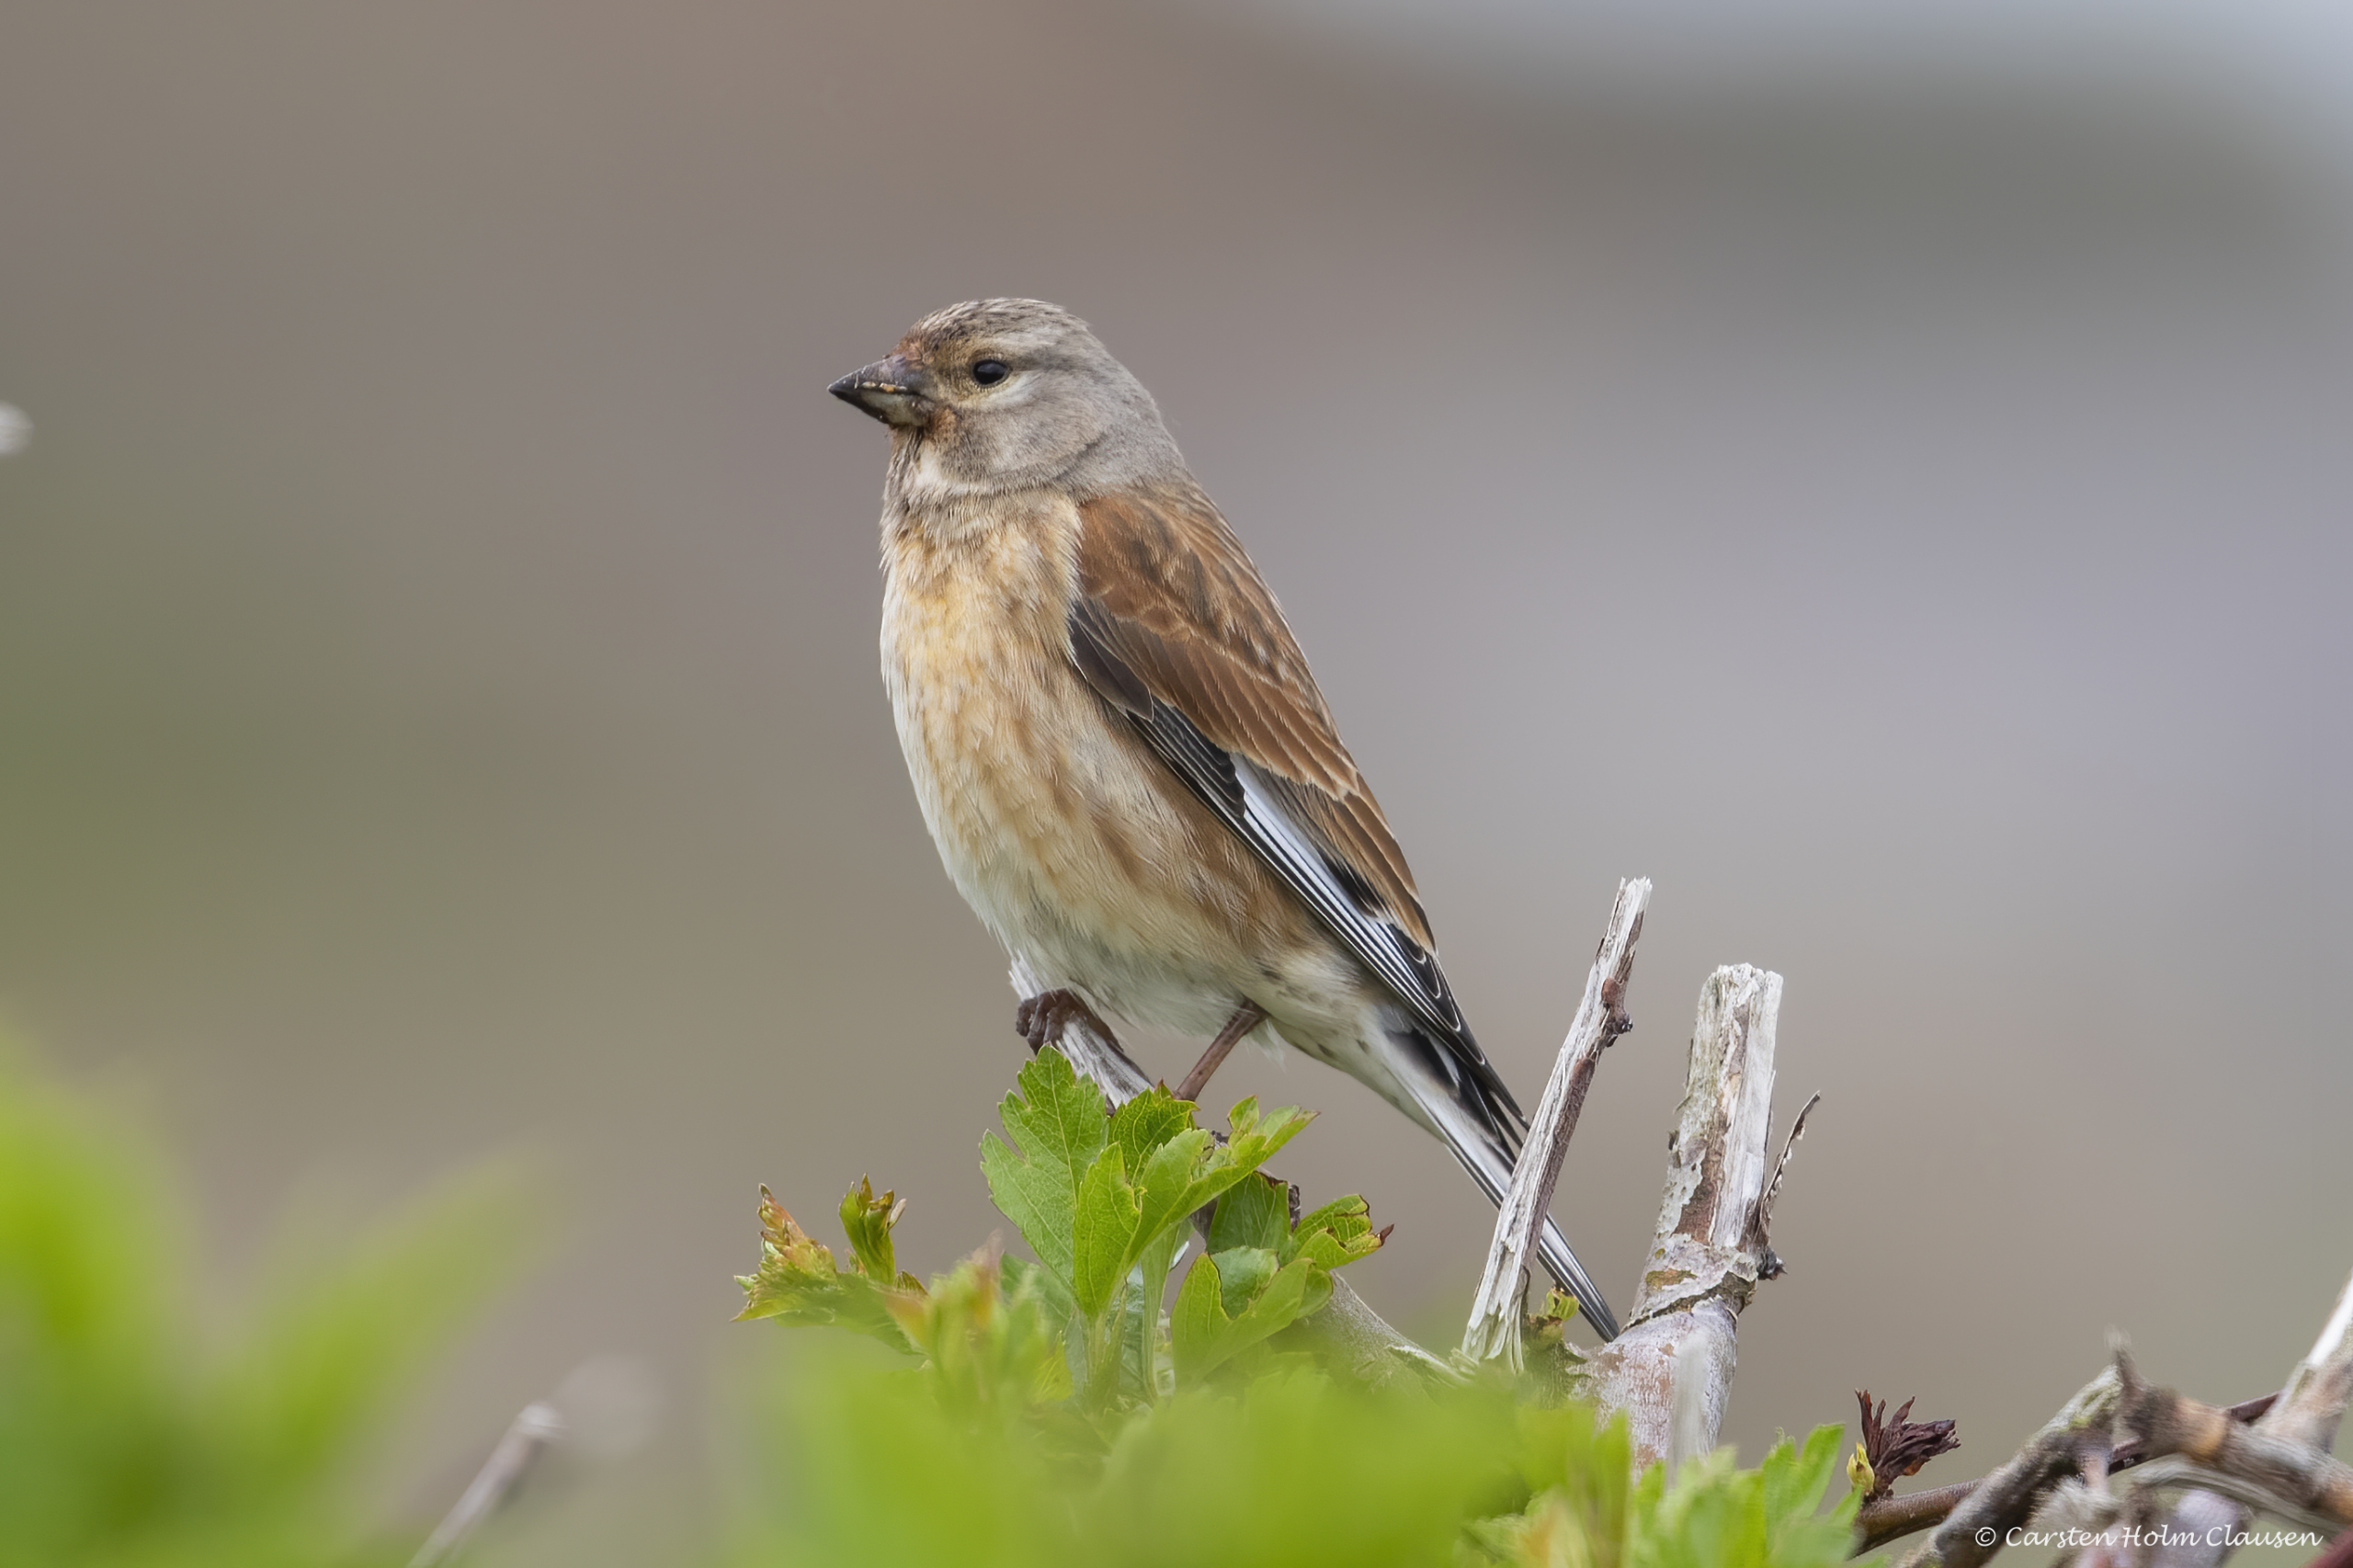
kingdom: Animalia
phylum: Chordata
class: Aves
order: Passeriformes
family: Fringillidae
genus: Linaria
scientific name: Linaria cannabina
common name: Tornirisk
